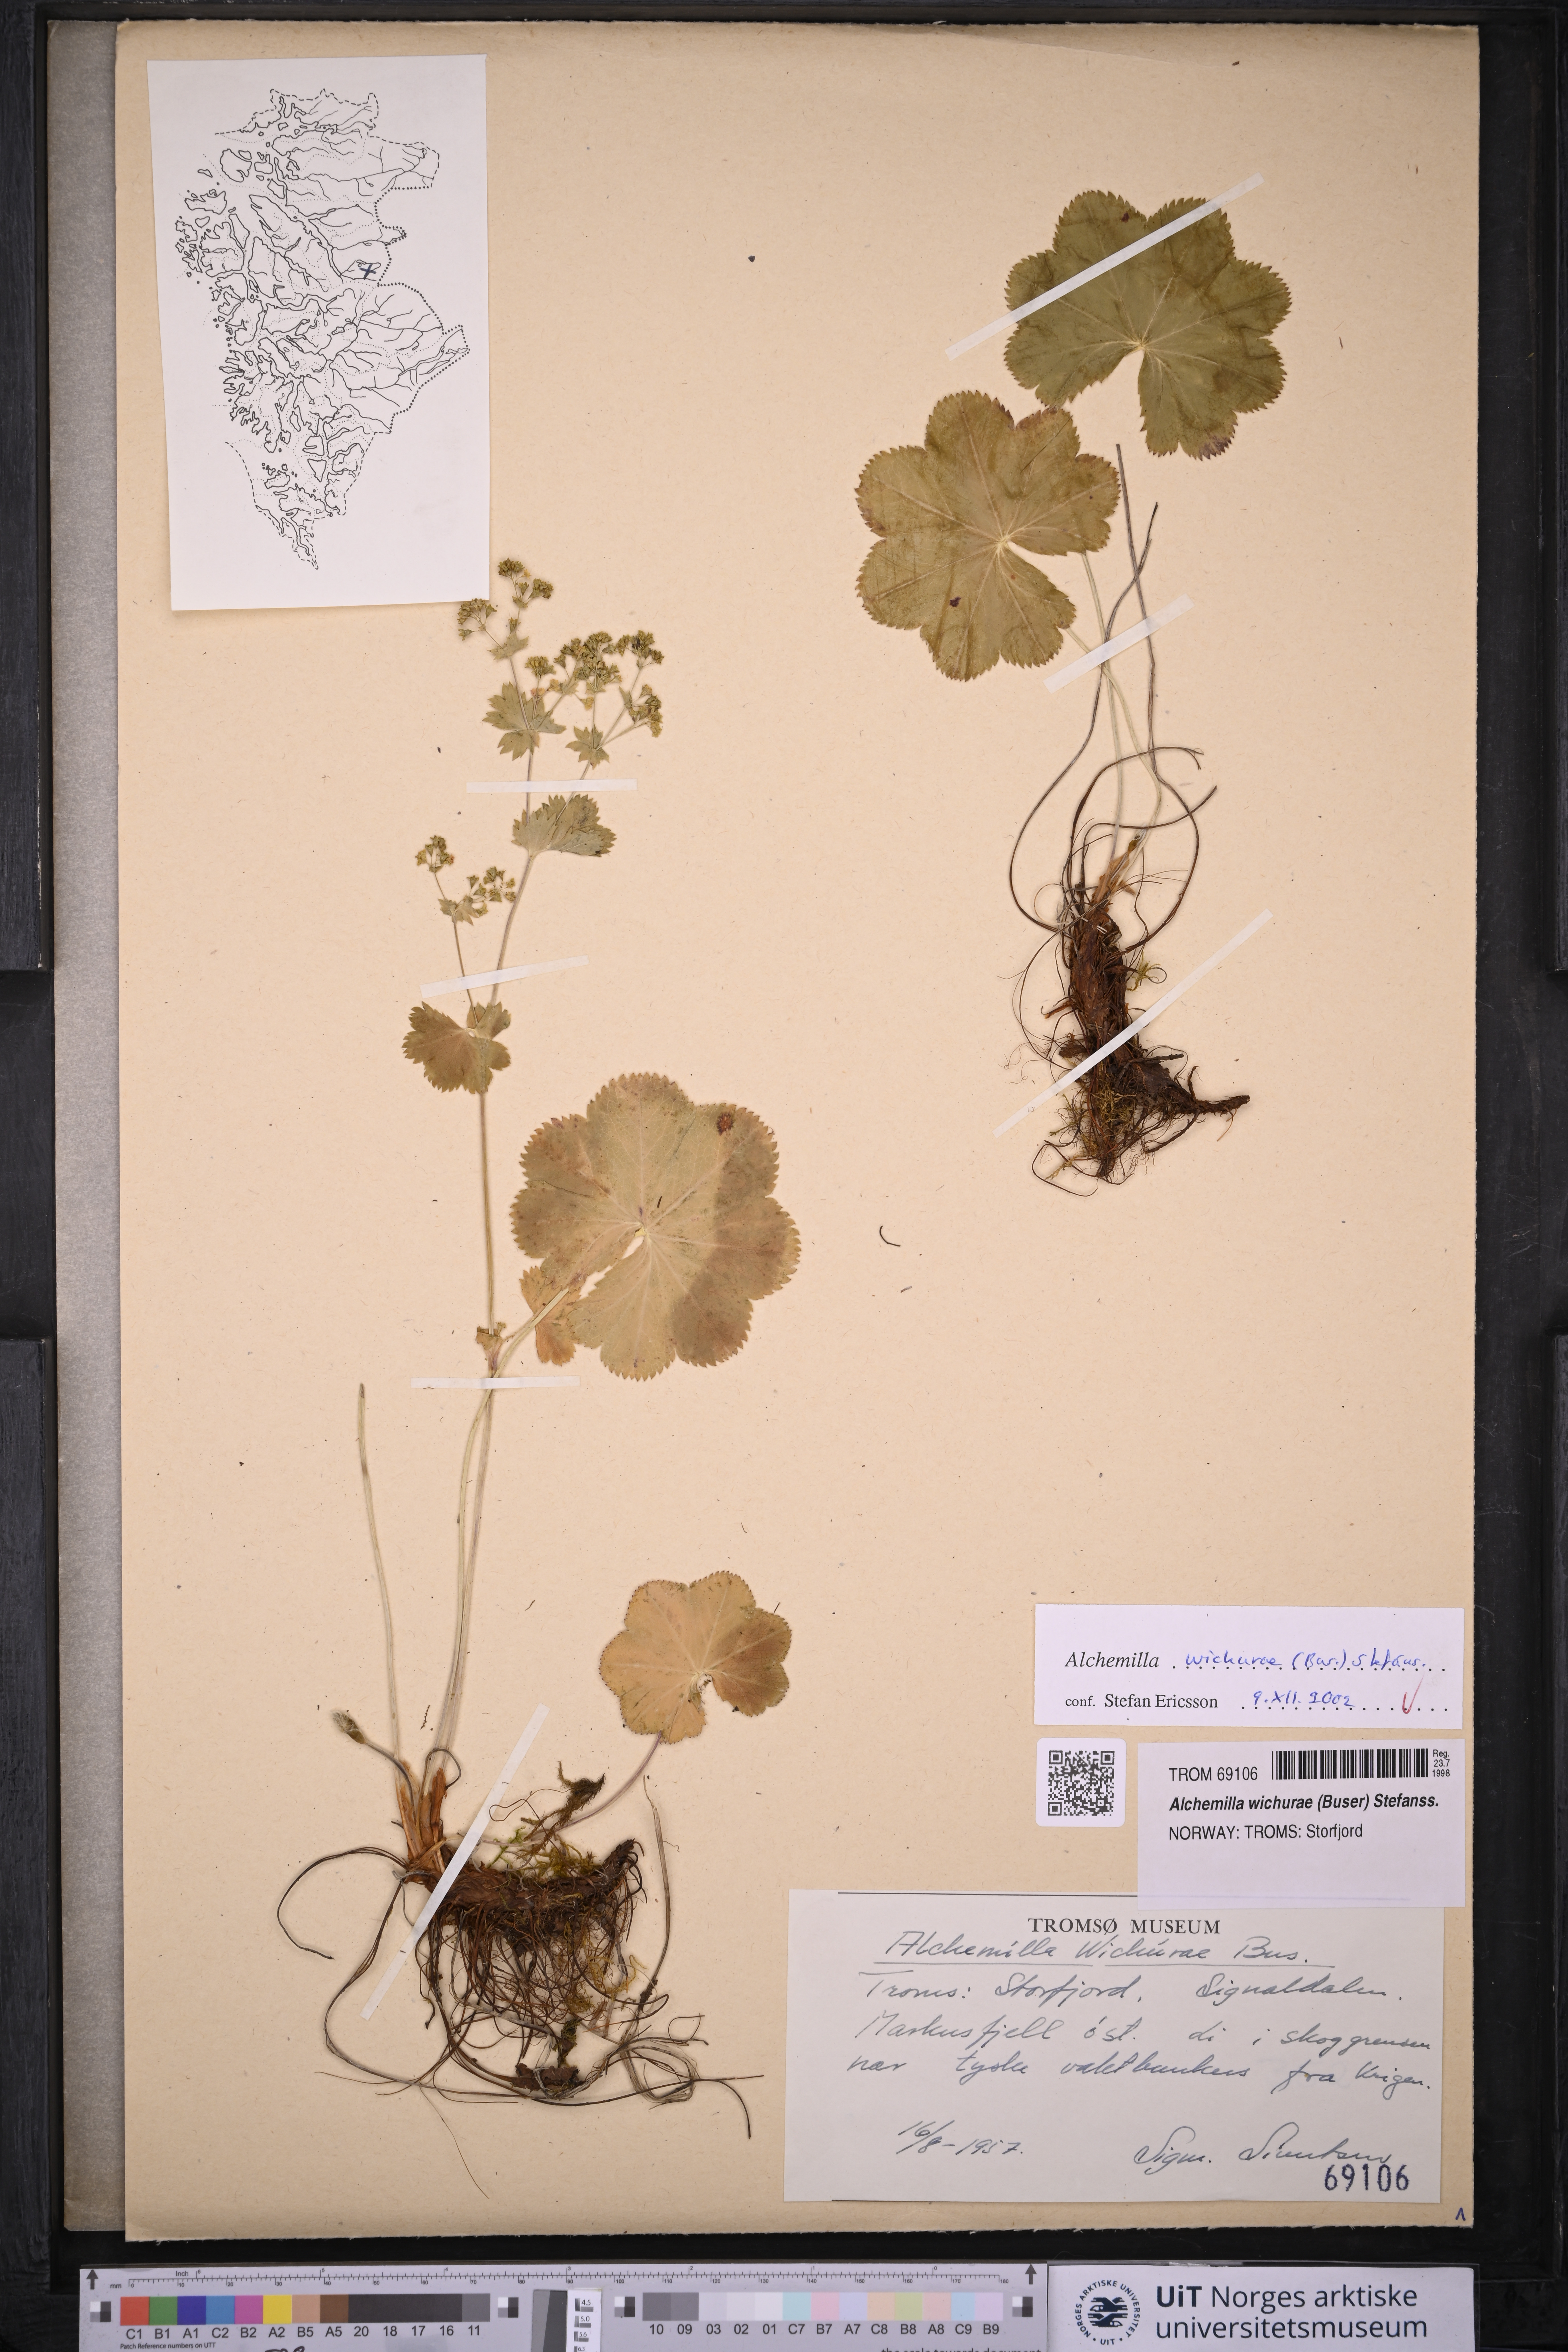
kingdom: Plantae
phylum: Tracheophyta
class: Magnoliopsida
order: Rosales
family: Rosaceae
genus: Alchemilla
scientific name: Alchemilla wichurae
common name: Rock lady's mantle
